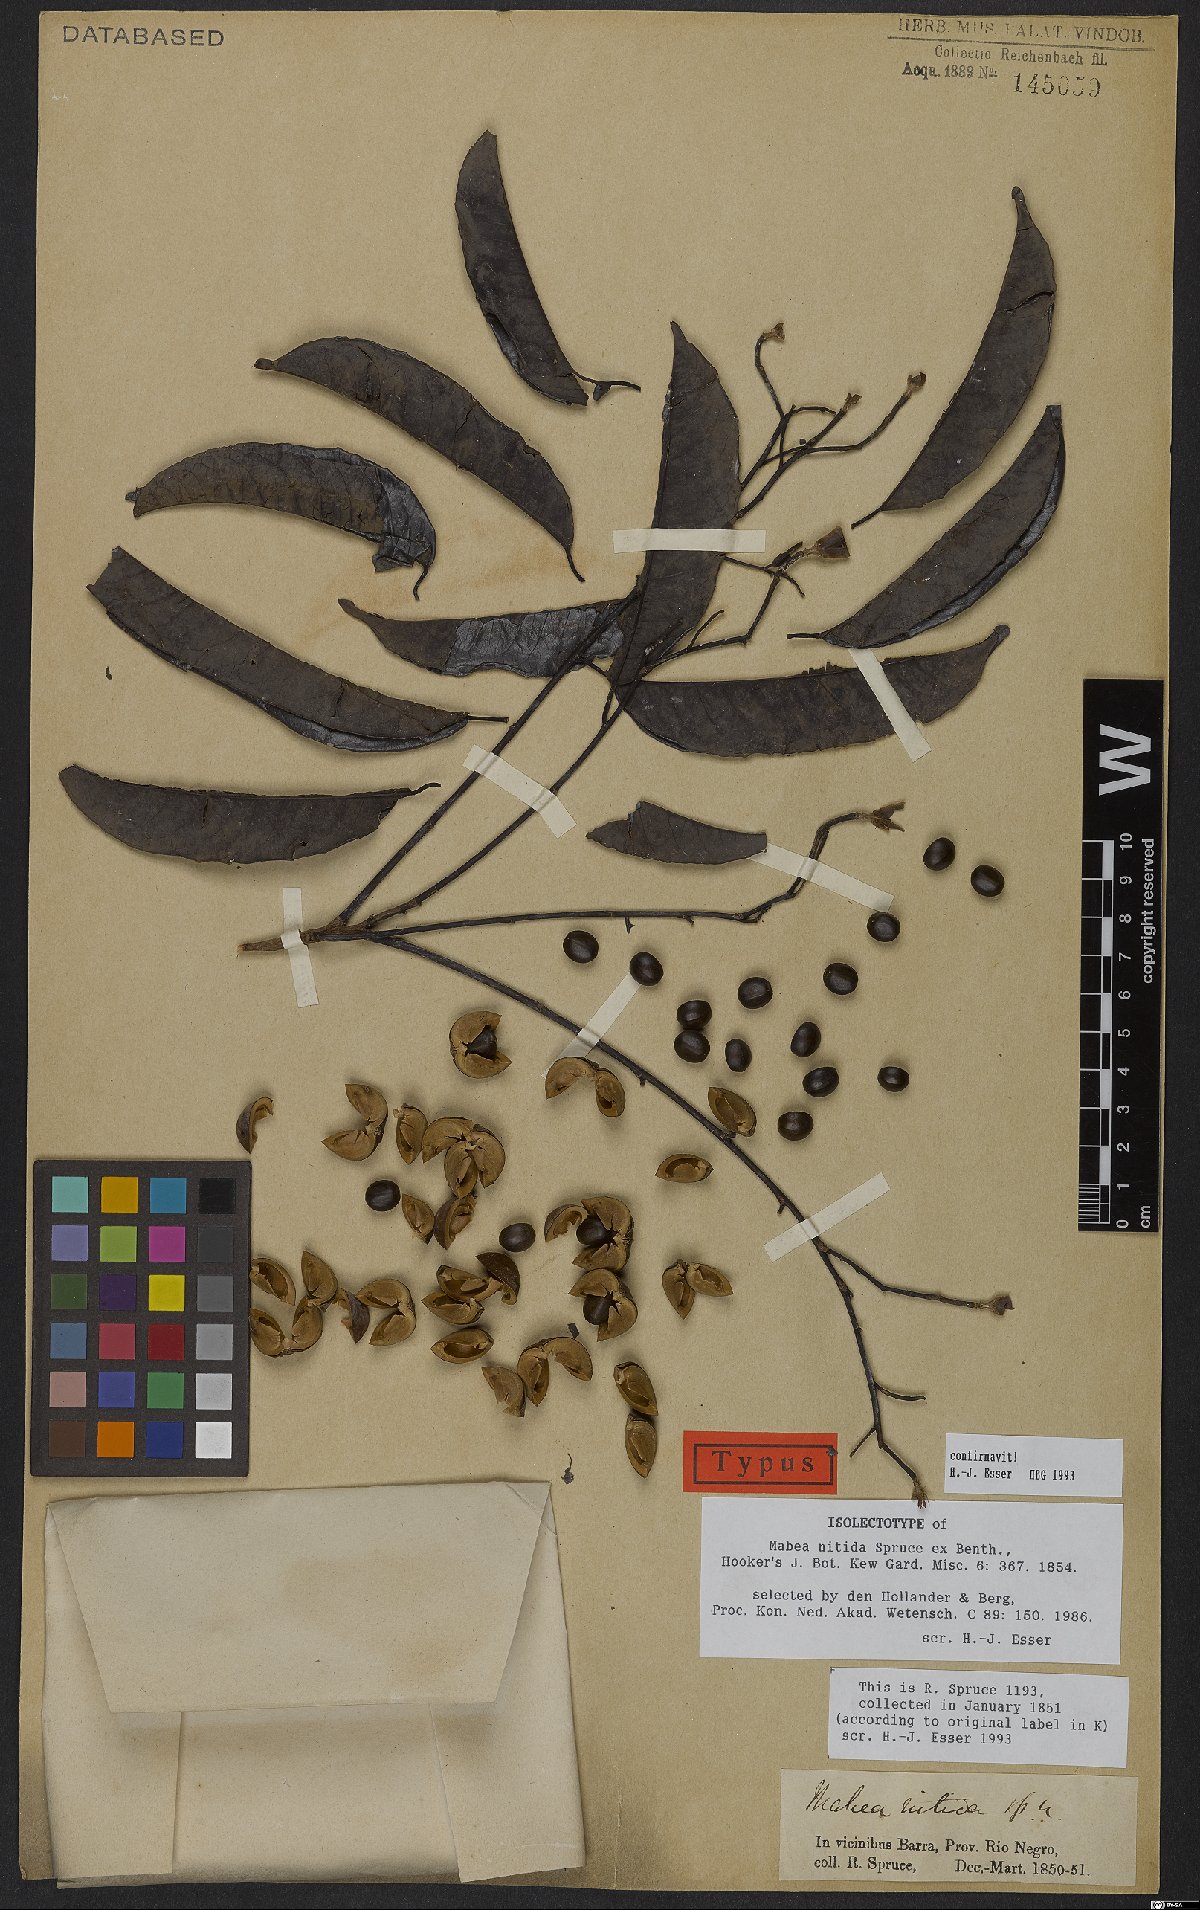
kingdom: Plantae
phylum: Tracheophyta
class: Magnoliopsida
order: Malpighiales
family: Euphorbiaceae
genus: Mabea
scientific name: Mabea nitida
